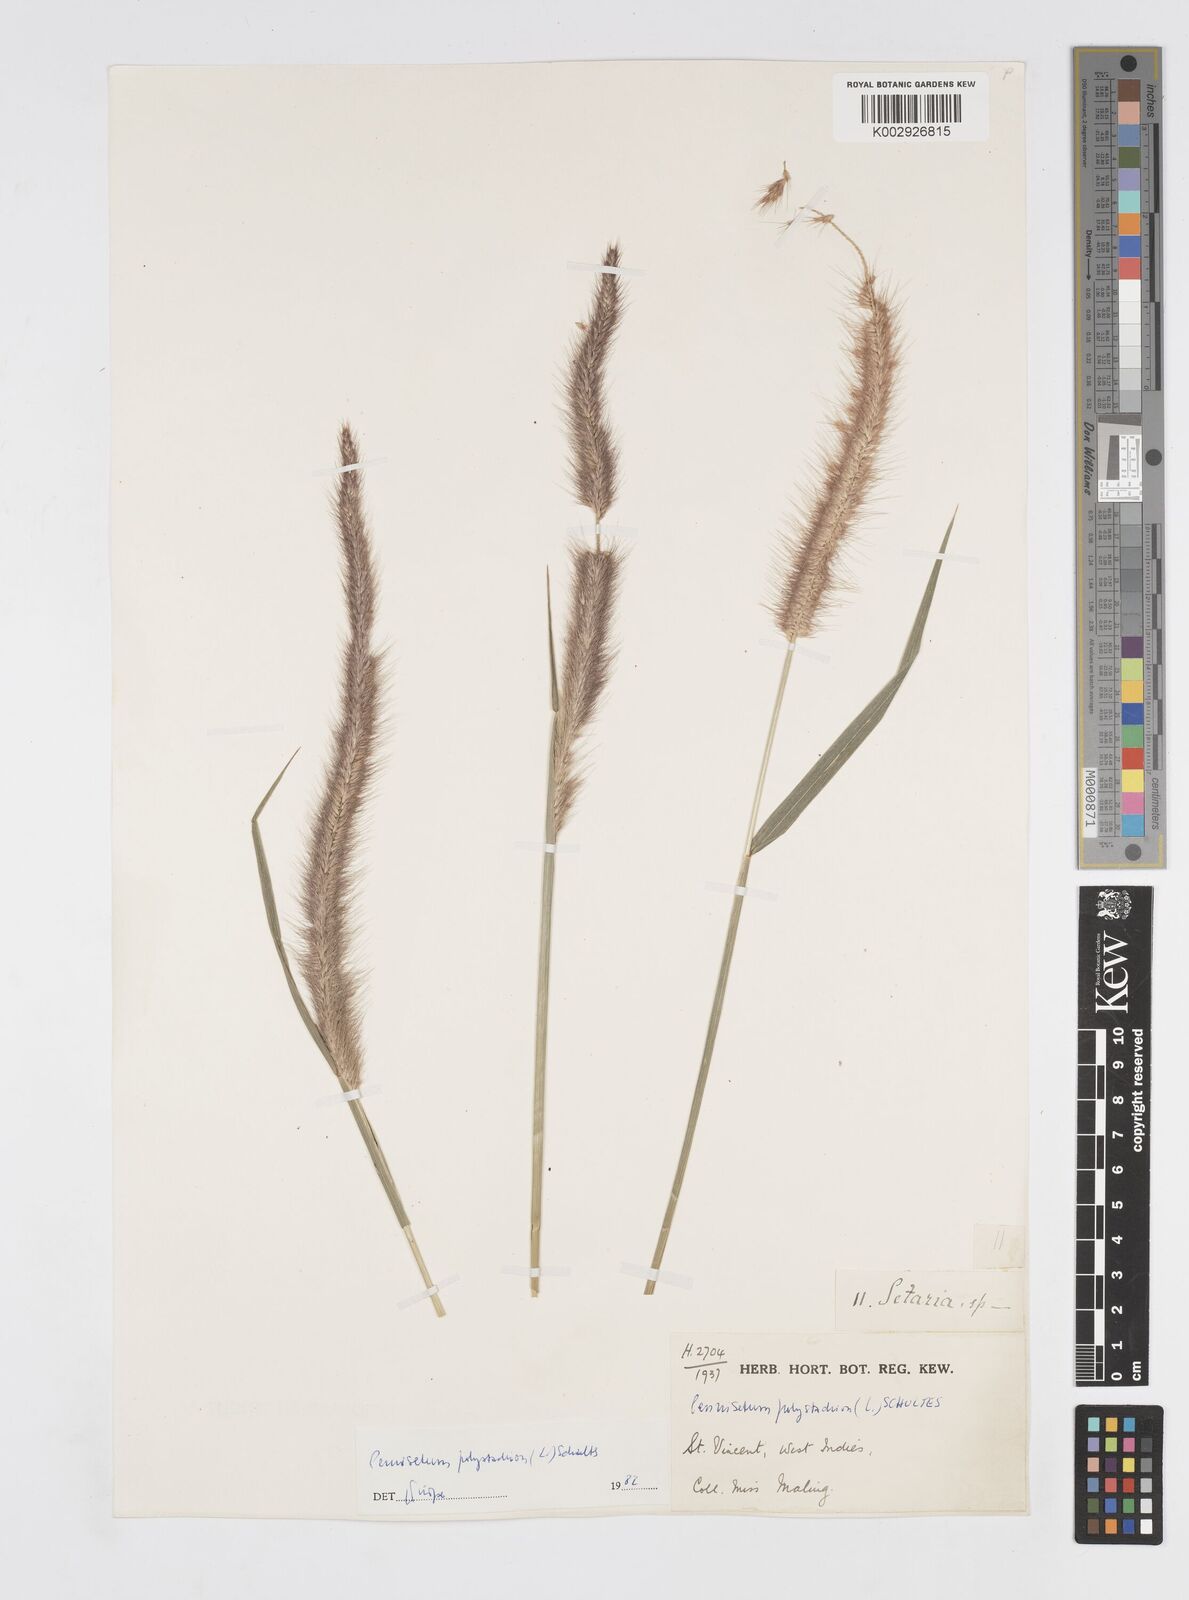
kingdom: Plantae
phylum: Tracheophyta
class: Liliopsida
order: Poales
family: Poaceae
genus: Cenchrus
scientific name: Cenchrus setosus
